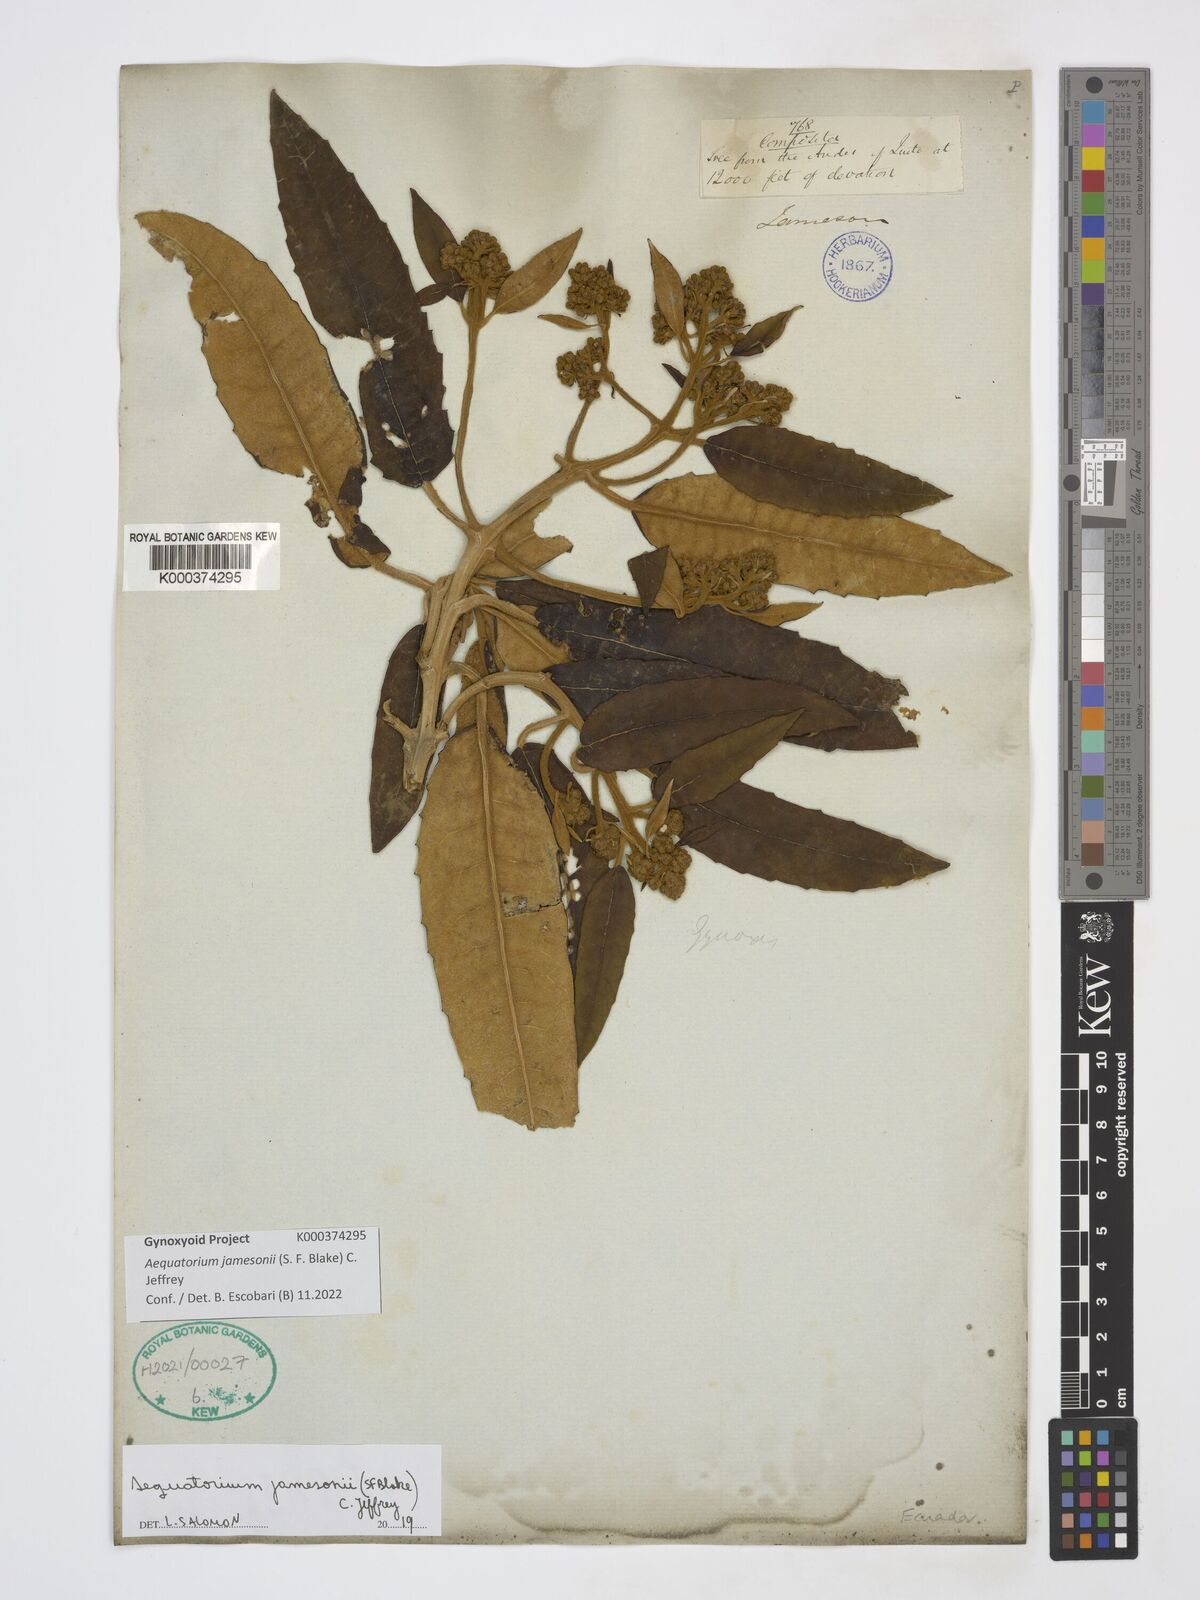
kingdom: Plantae
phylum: Tracheophyta
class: Magnoliopsida
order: Asterales
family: Asteraceae
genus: Aequatorium
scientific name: Aequatorium jamesonii
